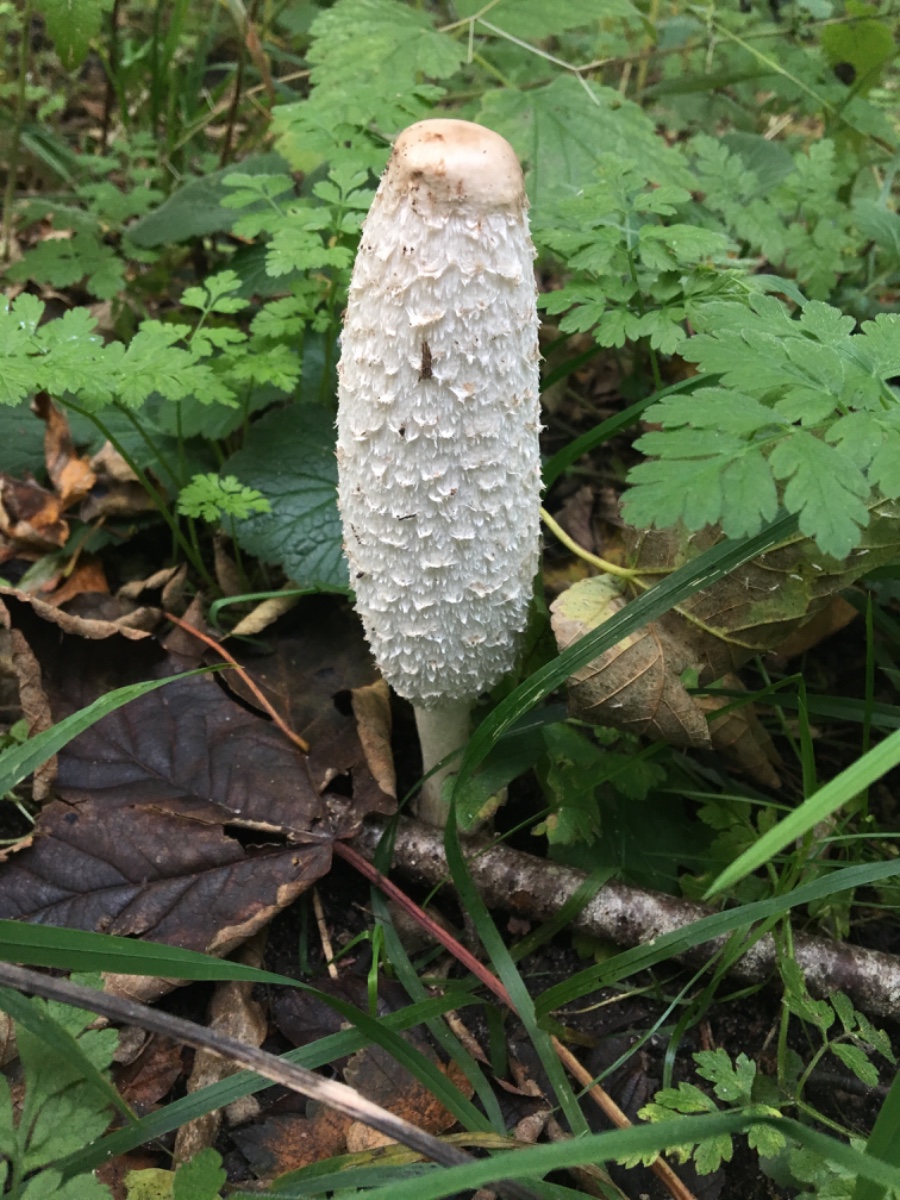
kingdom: Fungi
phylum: Basidiomycota
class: Agaricomycetes
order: Agaricales
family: Agaricaceae
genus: Coprinus
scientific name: Coprinus comatus
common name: stor parykhat
